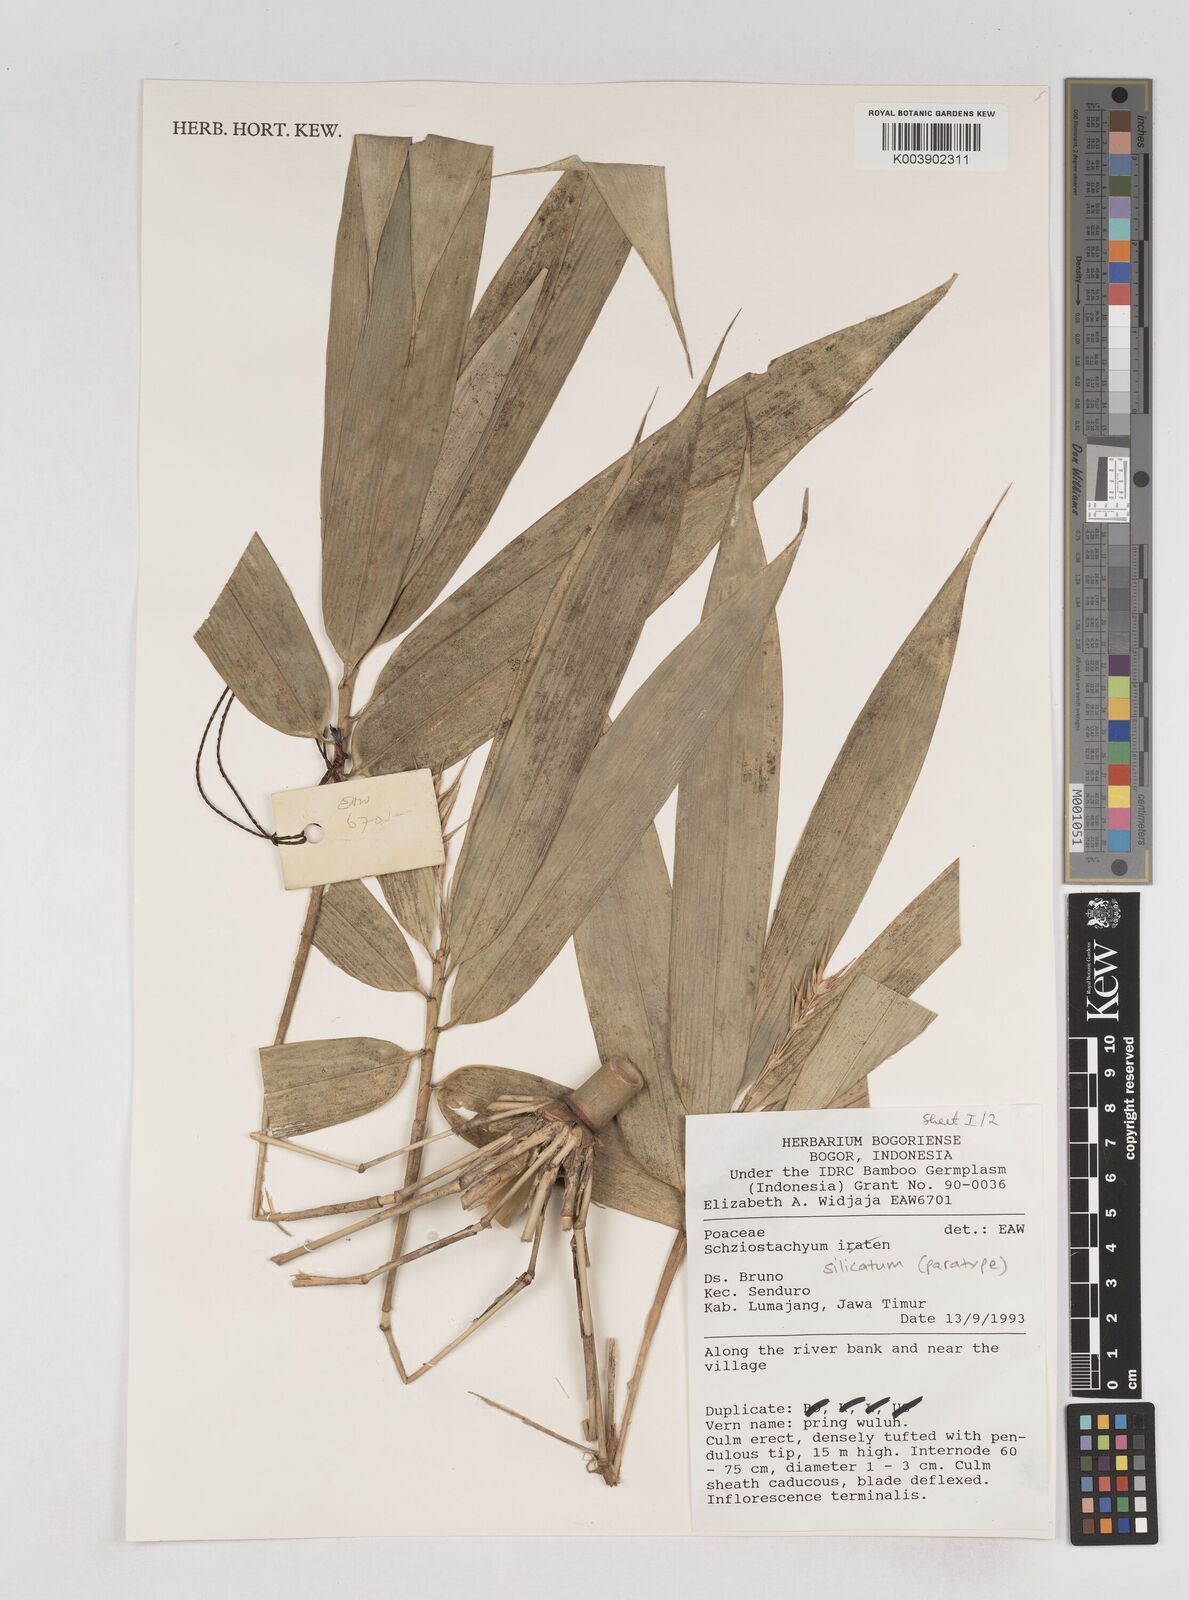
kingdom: Plantae
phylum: Tracheophyta
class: Liliopsida
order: Poales
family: Poaceae
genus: Schizostachyum
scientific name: Schizostachyum silicatum
